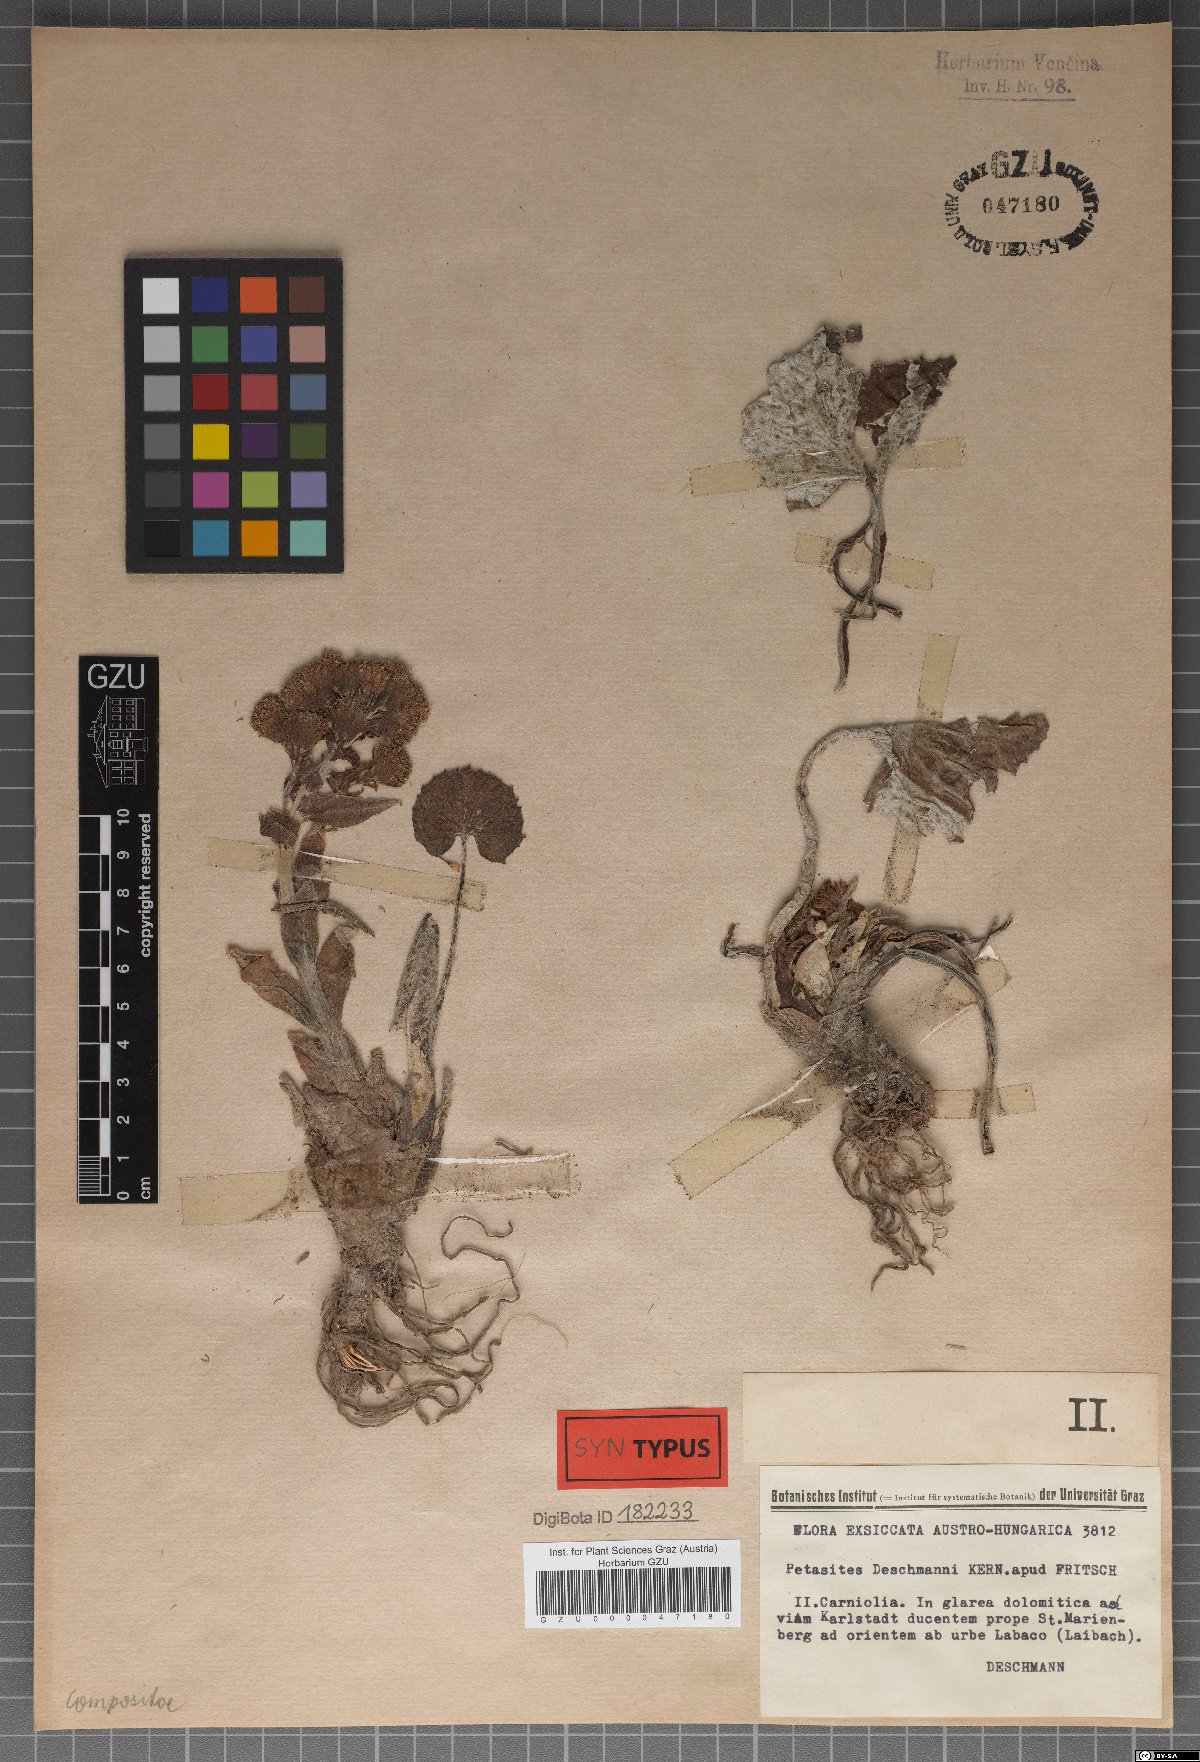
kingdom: Plantae
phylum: Tracheophyta
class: Magnoliopsida
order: Asterales
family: Asteraceae
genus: Petasites
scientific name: Petasites deschmannii
